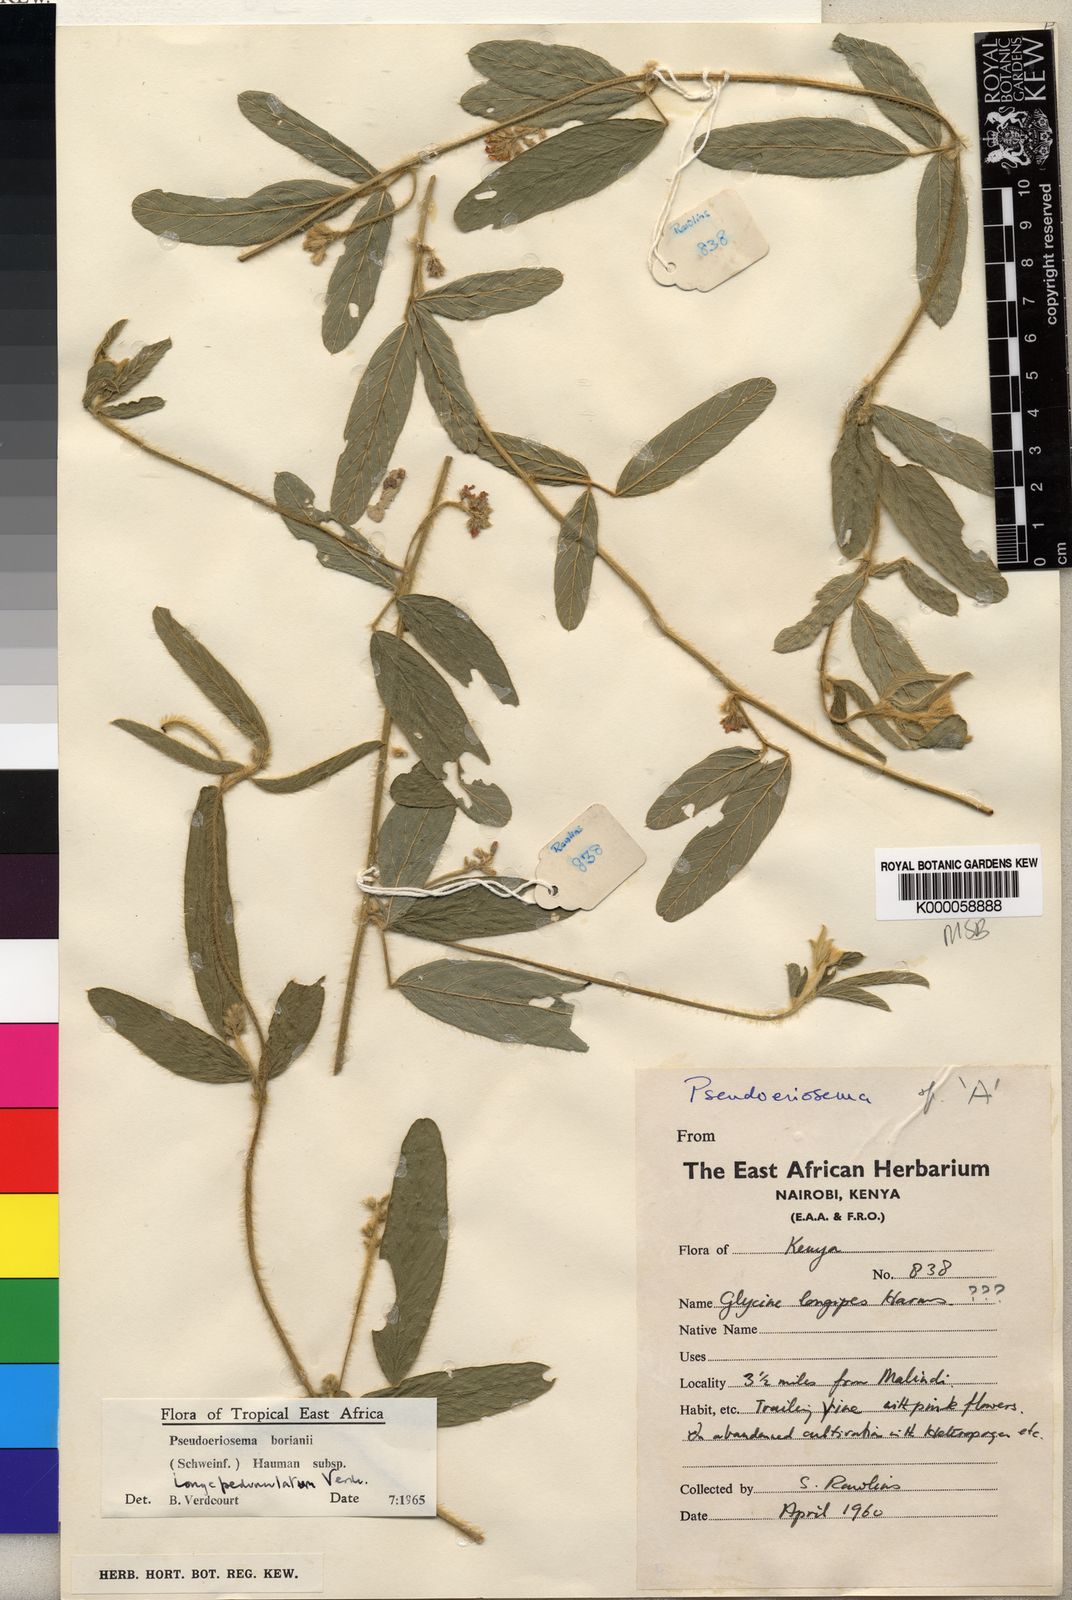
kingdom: Plantae
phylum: Tracheophyta
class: Magnoliopsida
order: Fabales
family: Fabaceae
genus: Pseudoeriosema
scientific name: Pseudoeriosema borianii
